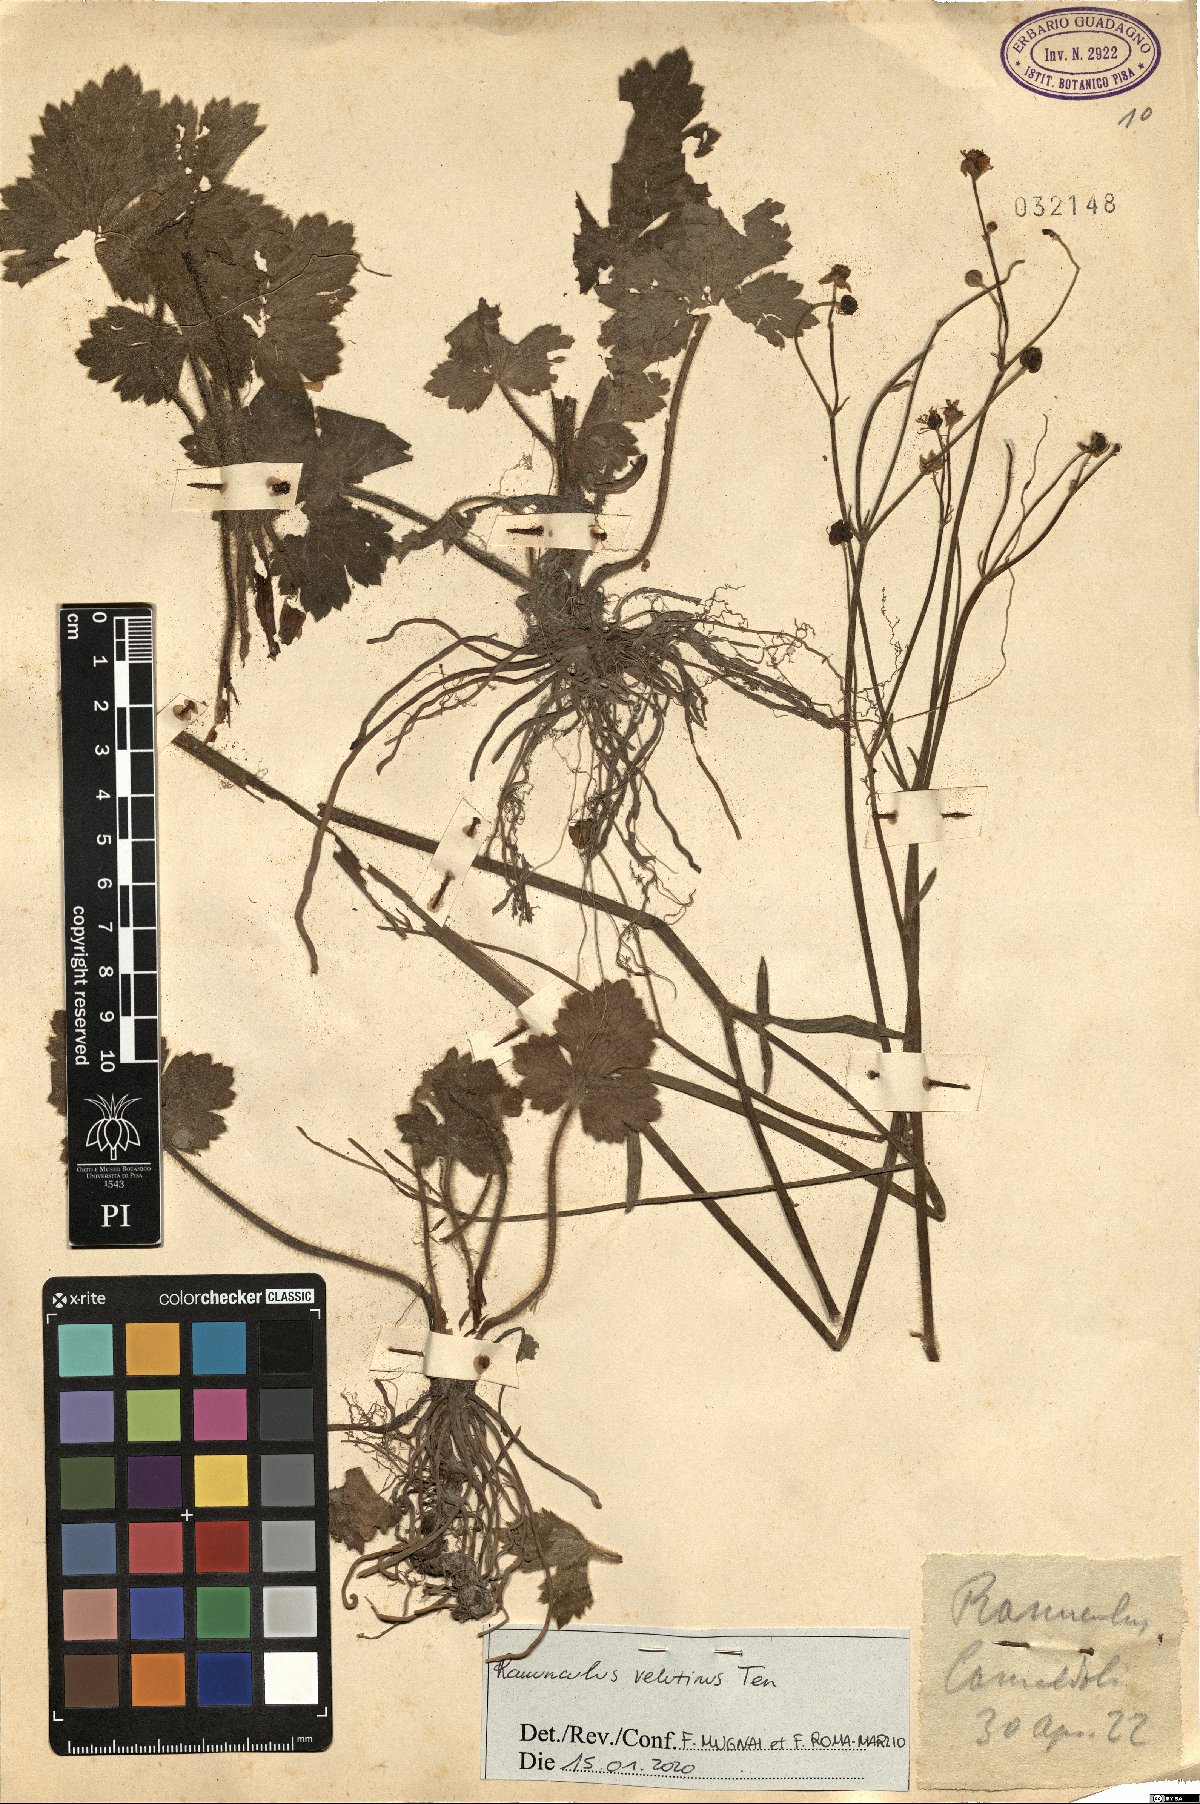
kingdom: Plantae
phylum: Tracheophyta
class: Magnoliopsida
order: Ranunculales
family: Ranunculaceae
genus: Ranunculus
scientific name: Ranunculus velutinus
